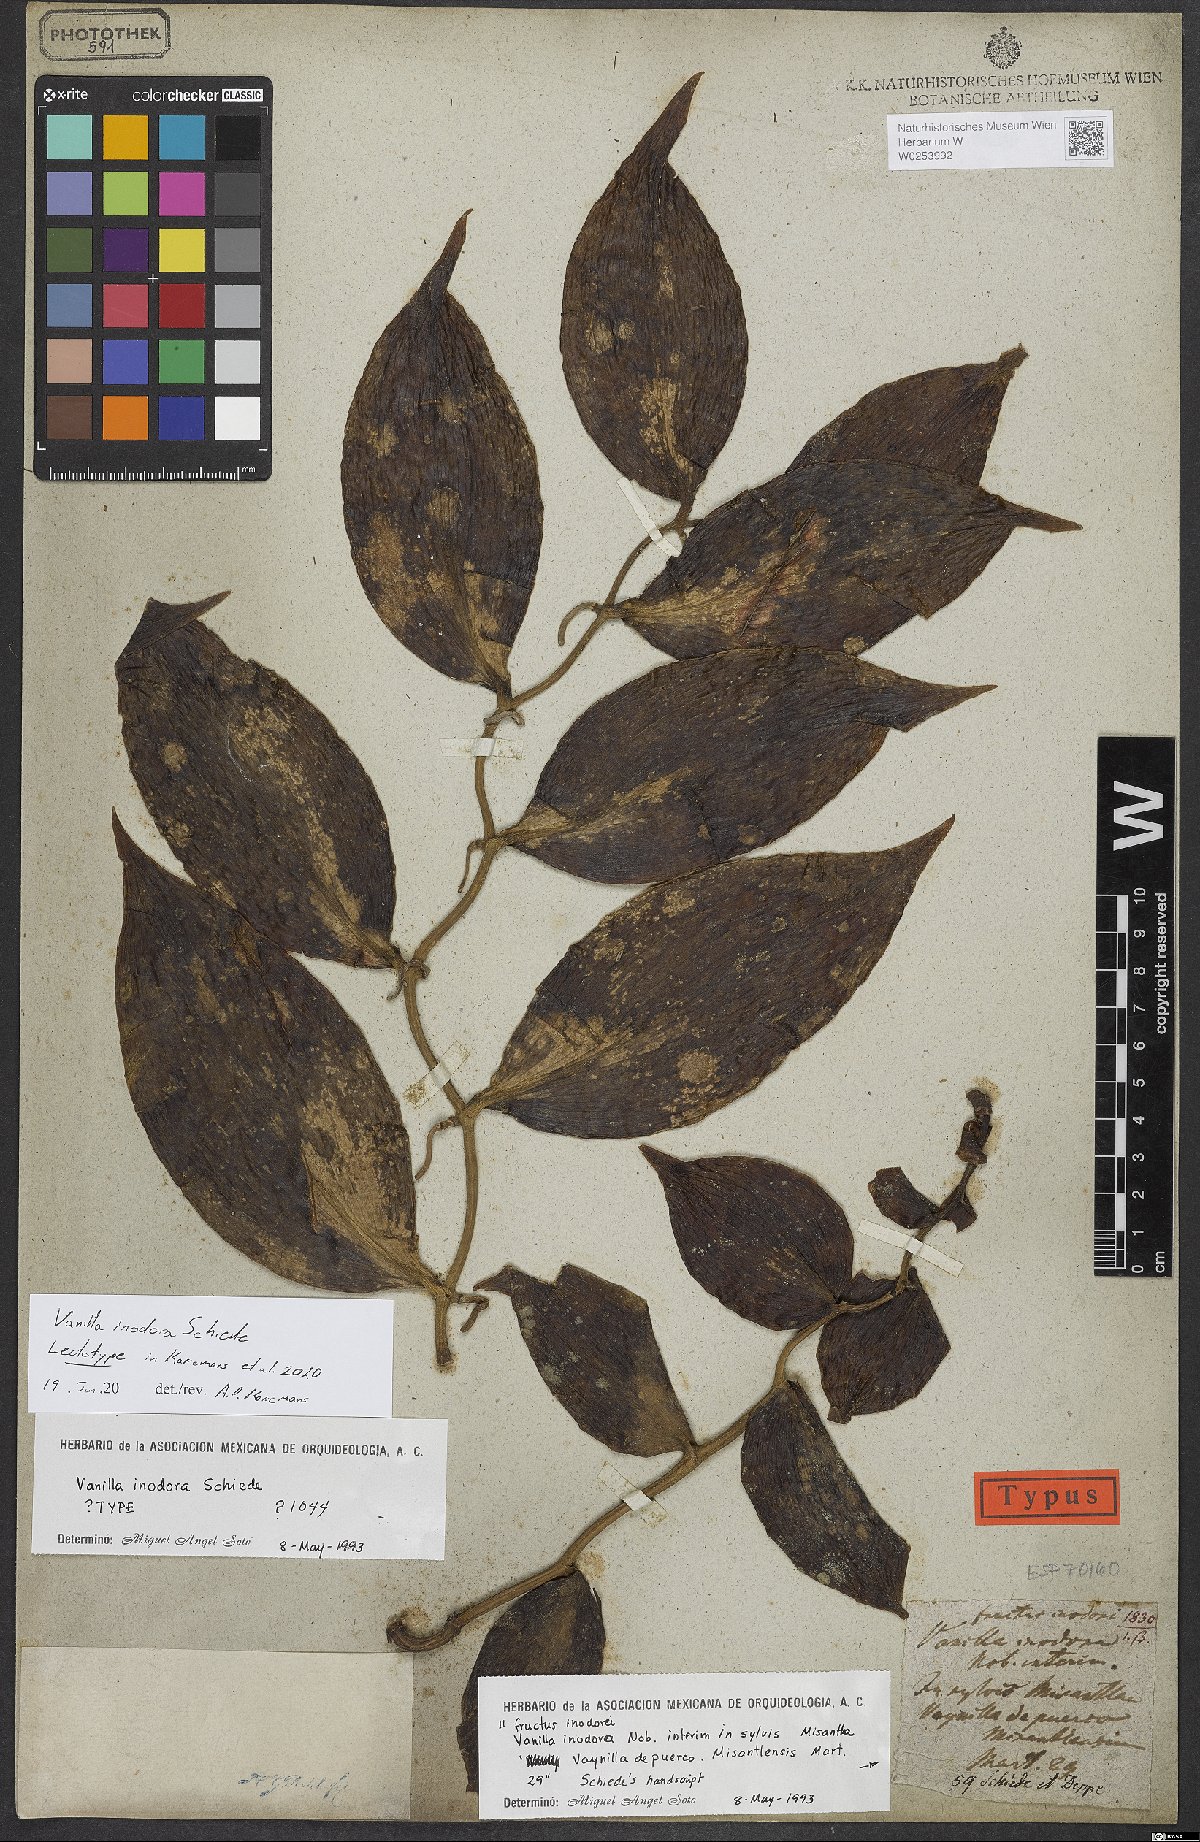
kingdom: Plantae
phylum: Tracheophyta
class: Liliopsida
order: Asparagales
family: Orchidaceae
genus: Vanilla
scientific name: Vanilla
